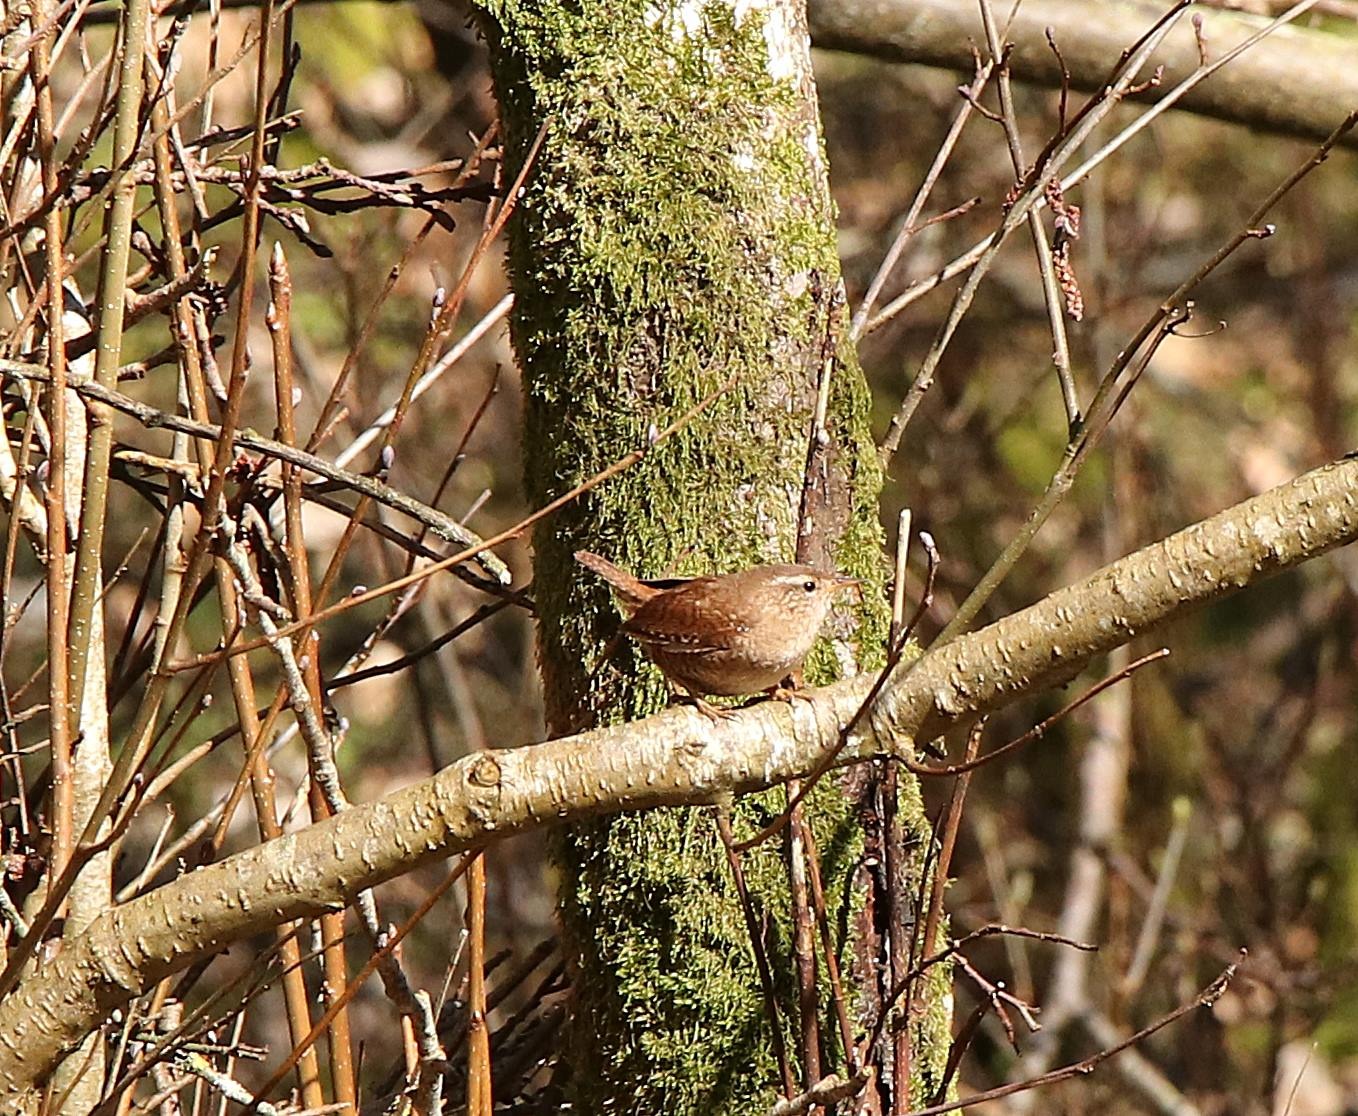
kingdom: Animalia
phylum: Chordata
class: Aves
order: Passeriformes
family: Troglodytidae
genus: Troglodytes
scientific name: Troglodytes troglodytes
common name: Gærdesmutte
